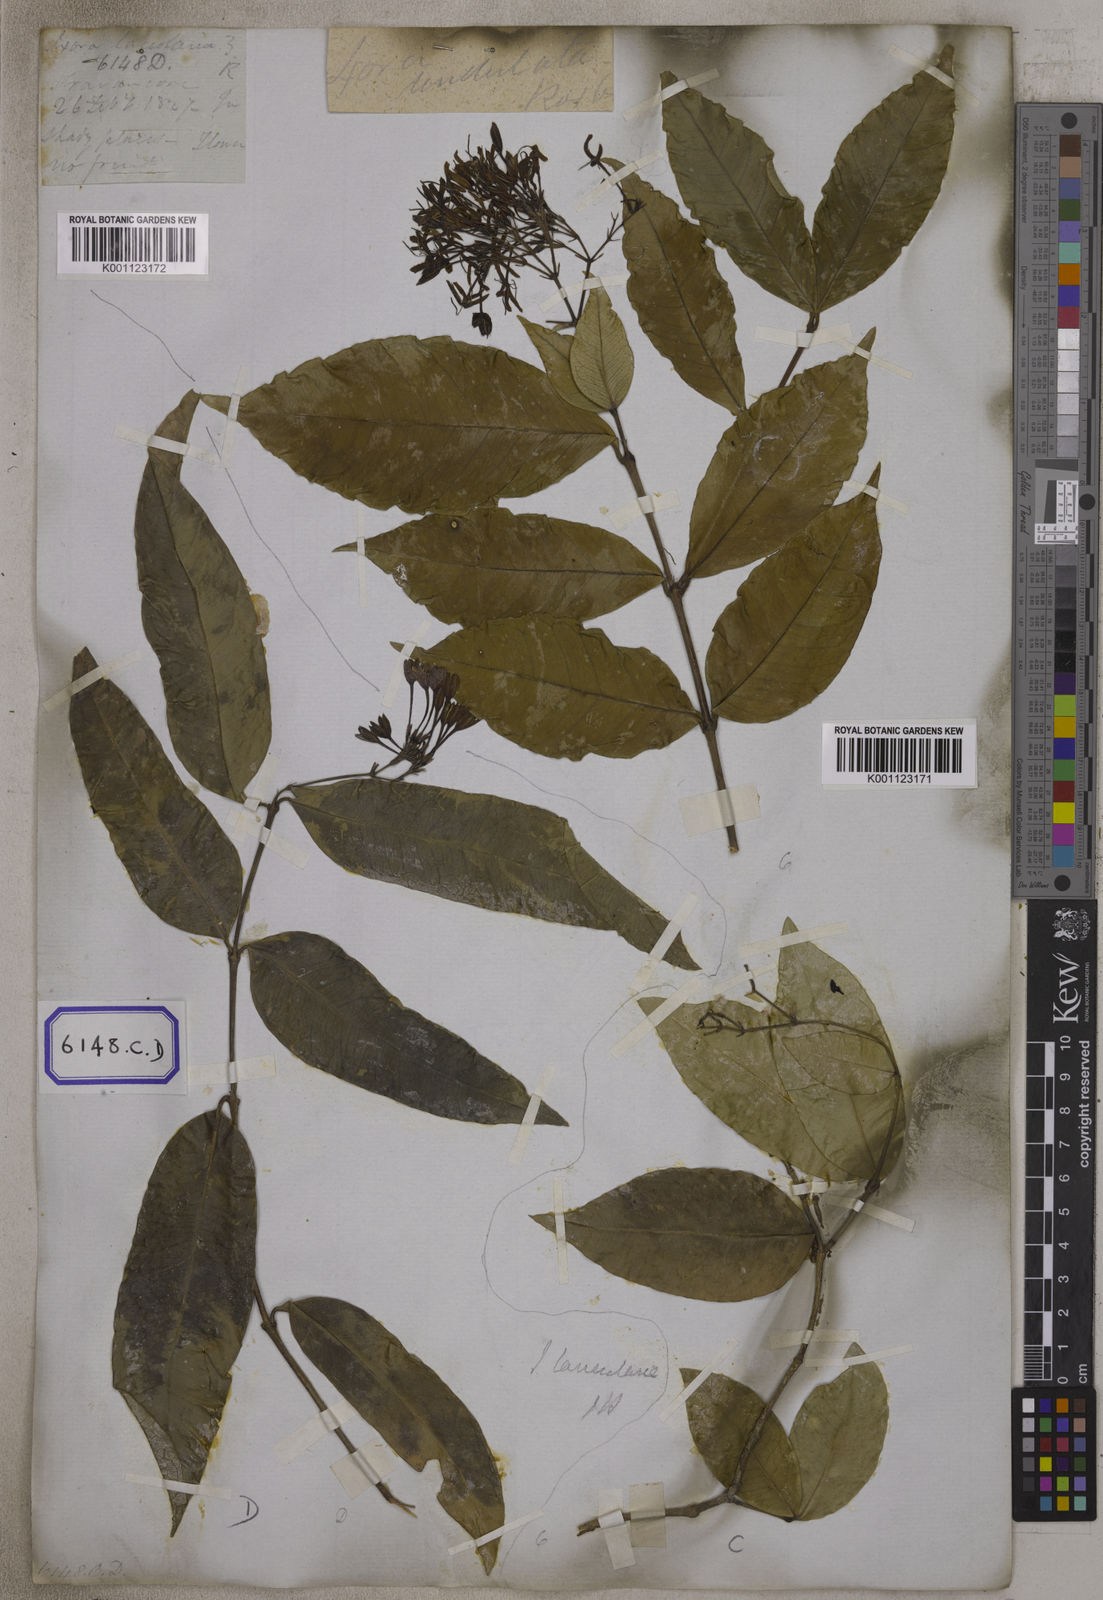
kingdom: Plantae
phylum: Tracheophyta
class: Magnoliopsida
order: Gentianales
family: Rubiaceae
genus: Ixora
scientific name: Ixora
